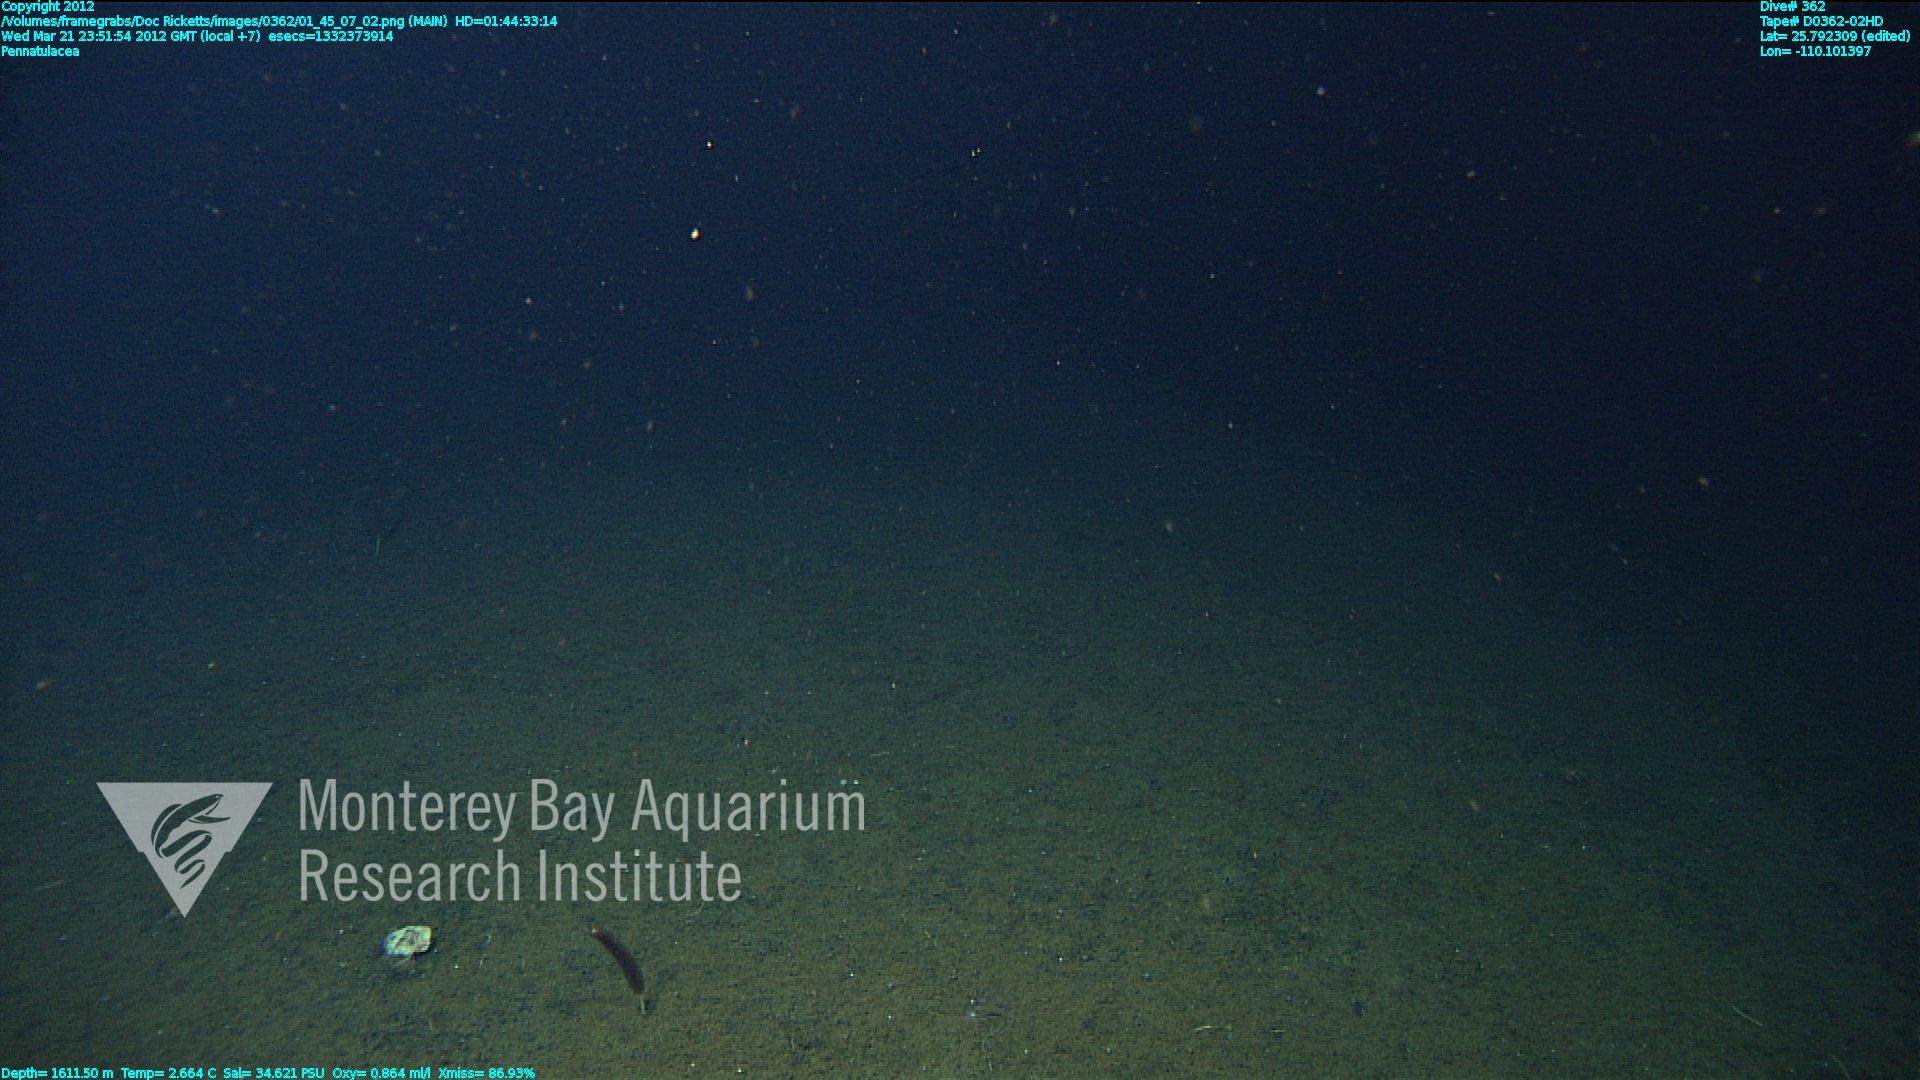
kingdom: Animalia
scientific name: Animalia
